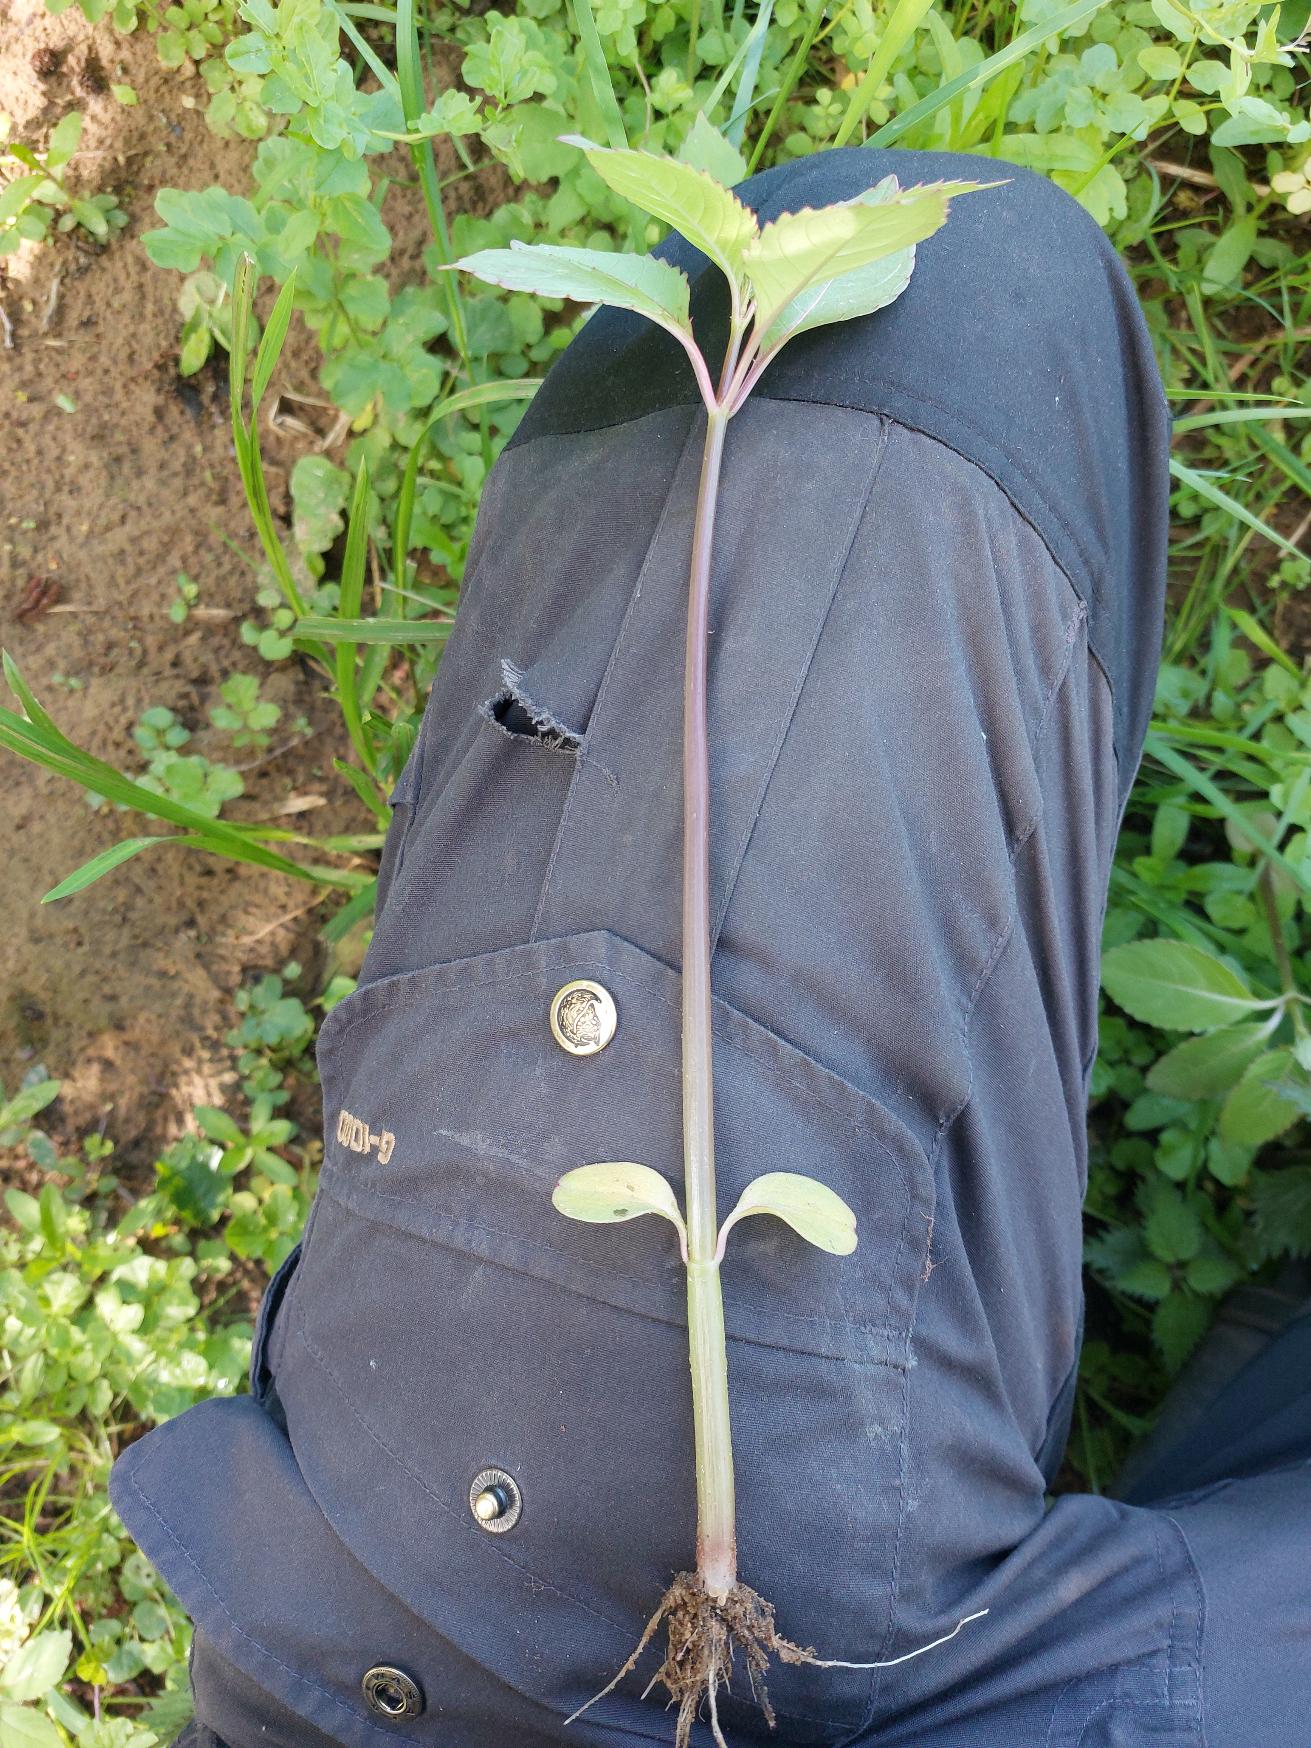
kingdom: Plantae
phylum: Tracheophyta
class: Magnoliopsida
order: Ericales
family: Balsaminaceae
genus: Impatiens
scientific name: Impatiens glandulifera
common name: Kæmpe-balsamin
